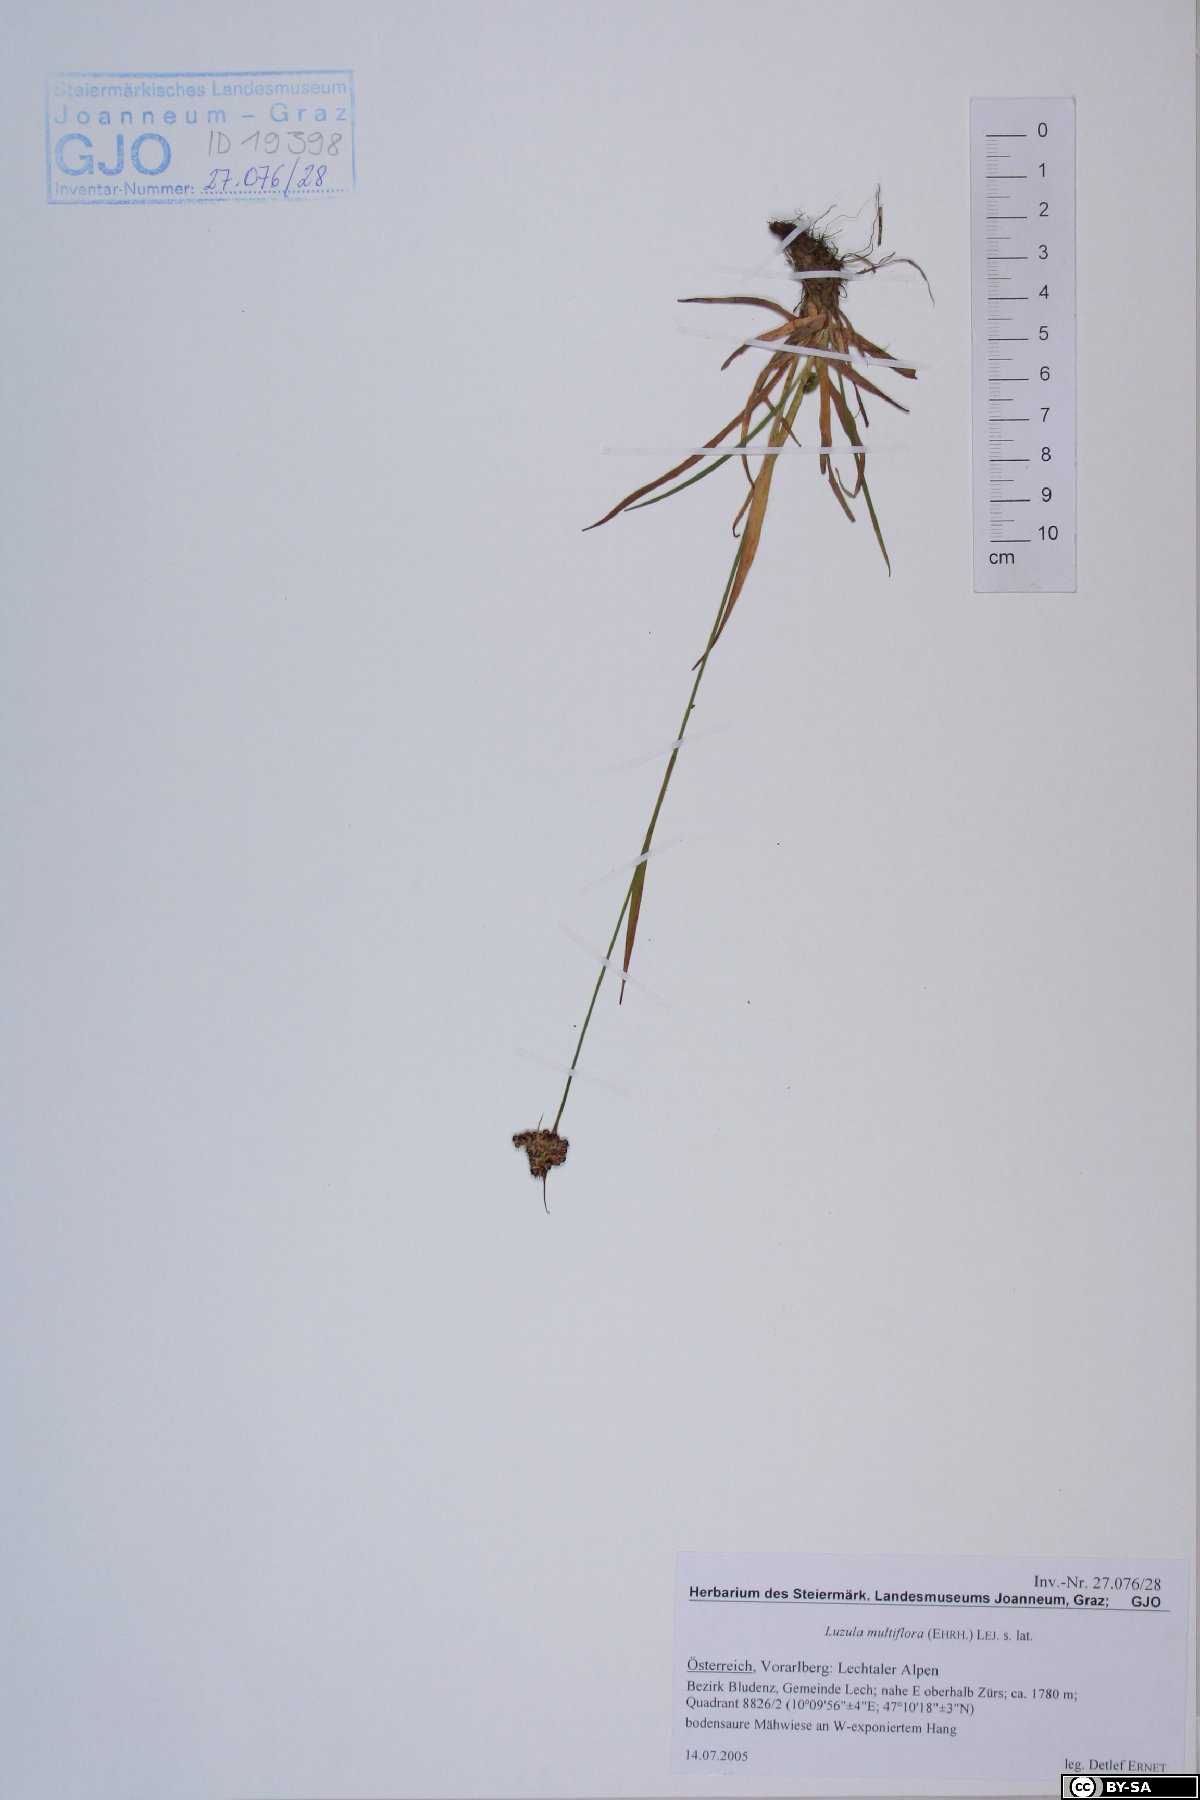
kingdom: Plantae
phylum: Tracheophyta
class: Liliopsida
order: Poales
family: Juncaceae
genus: Luzula
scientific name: Luzula multiflora
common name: Heath wood-rush
